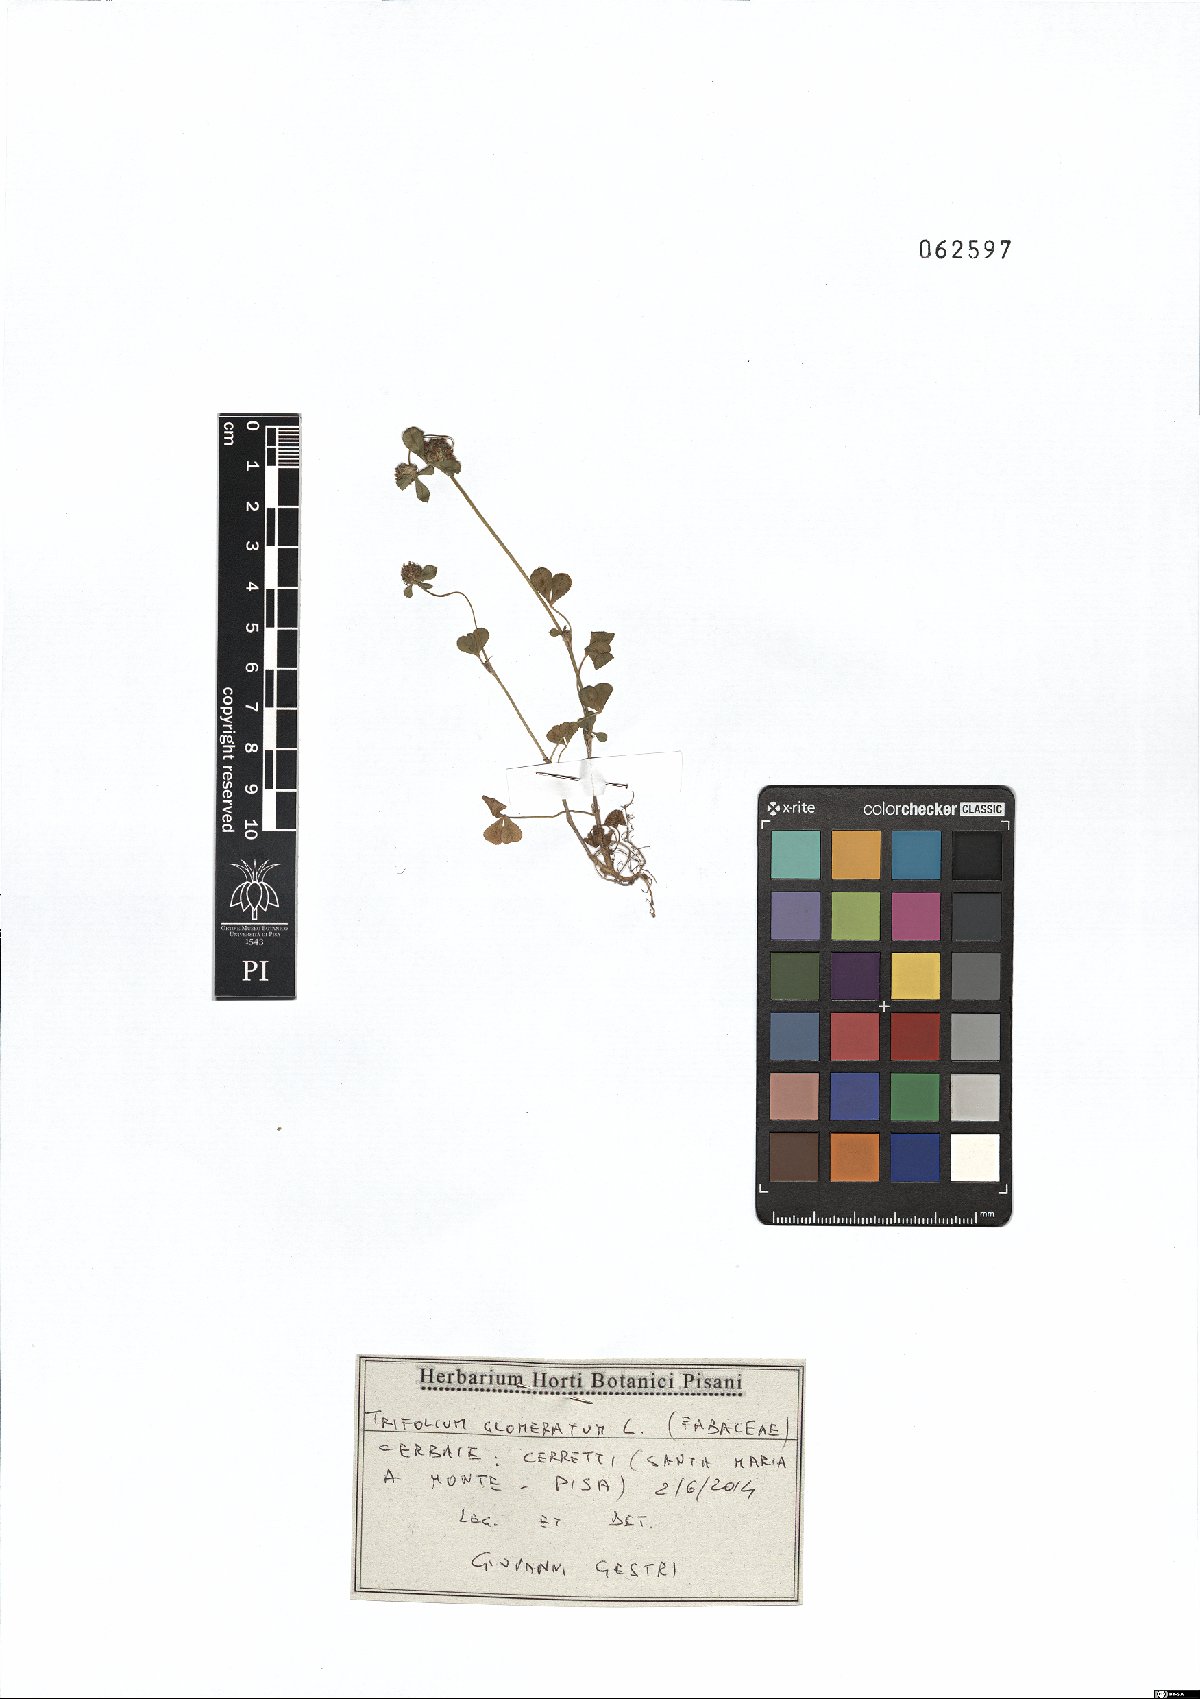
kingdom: Plantae
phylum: Tracheophyta
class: Magnoliopsida
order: Fabales
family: Fabaceae
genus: Trifolium
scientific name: Trifolium glomeratum
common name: Clustered clover
